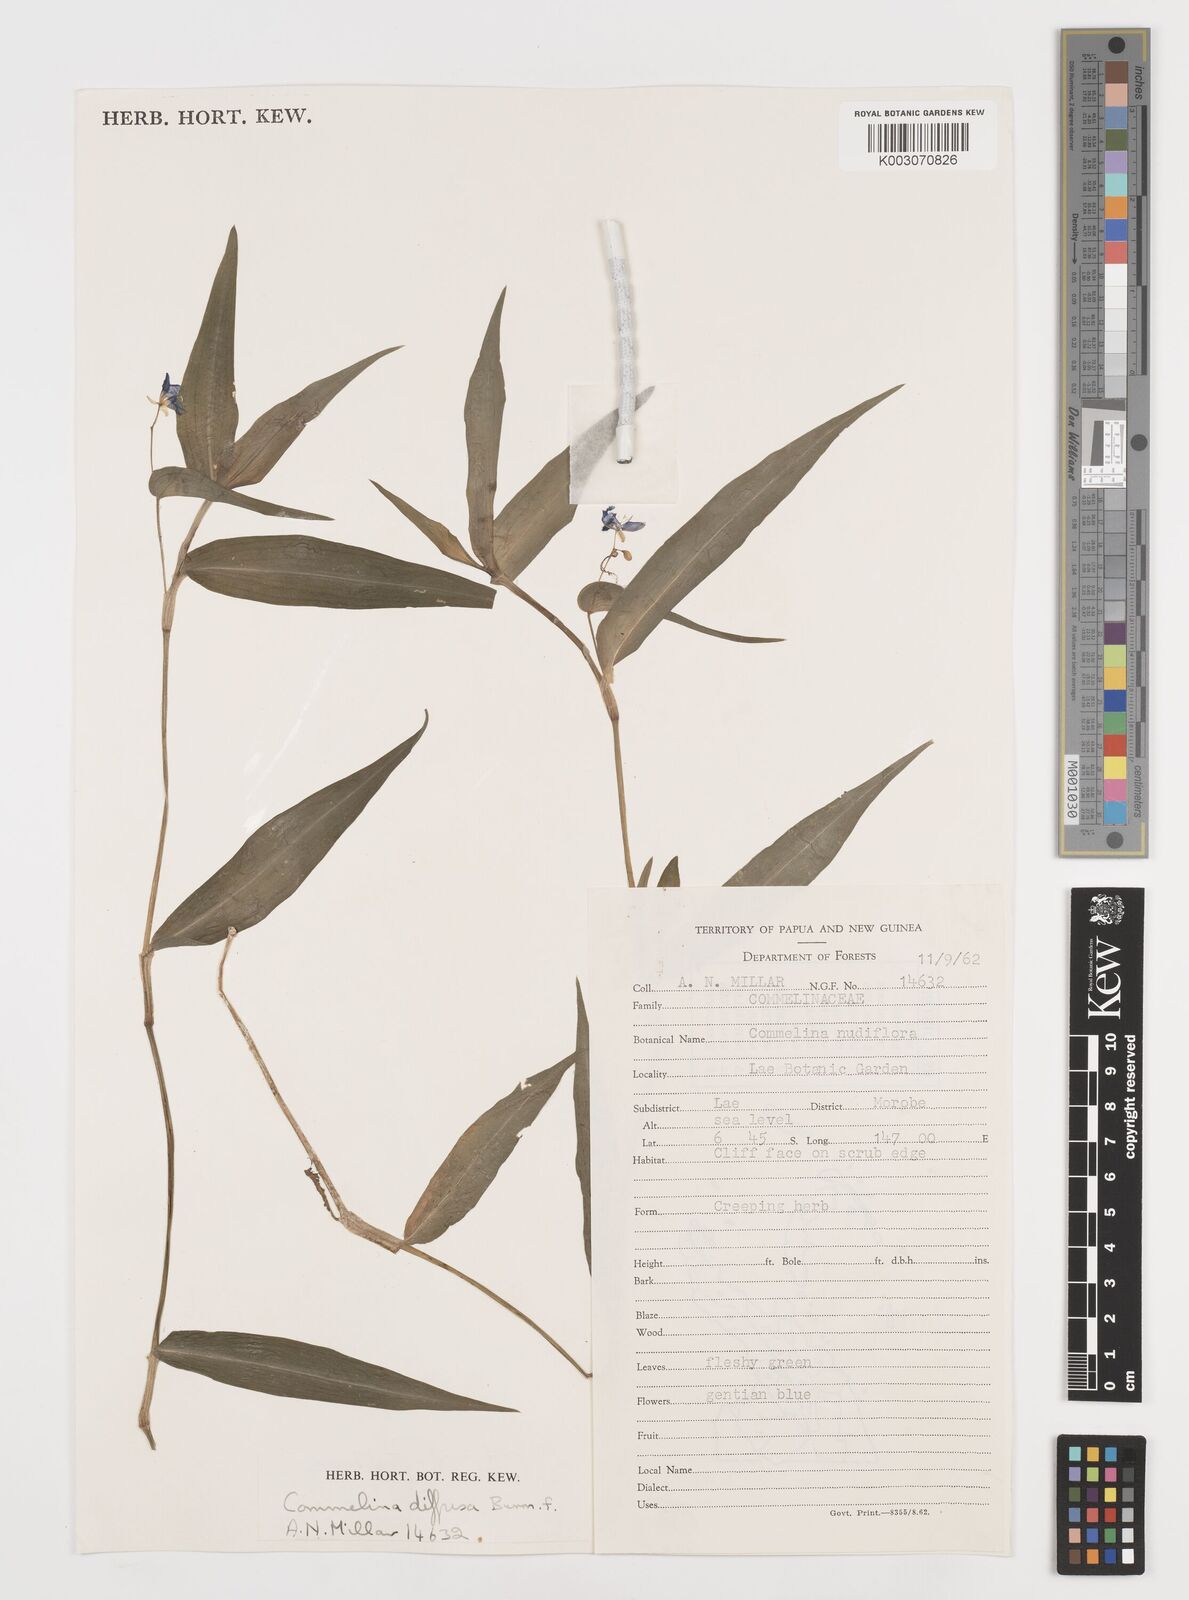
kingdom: Plantae
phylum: Tracheophyta
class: Liliopsida
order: Commelinales
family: Commelinaceae
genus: Commelina
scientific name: Commelina diffusa
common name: Climbing dayflower
